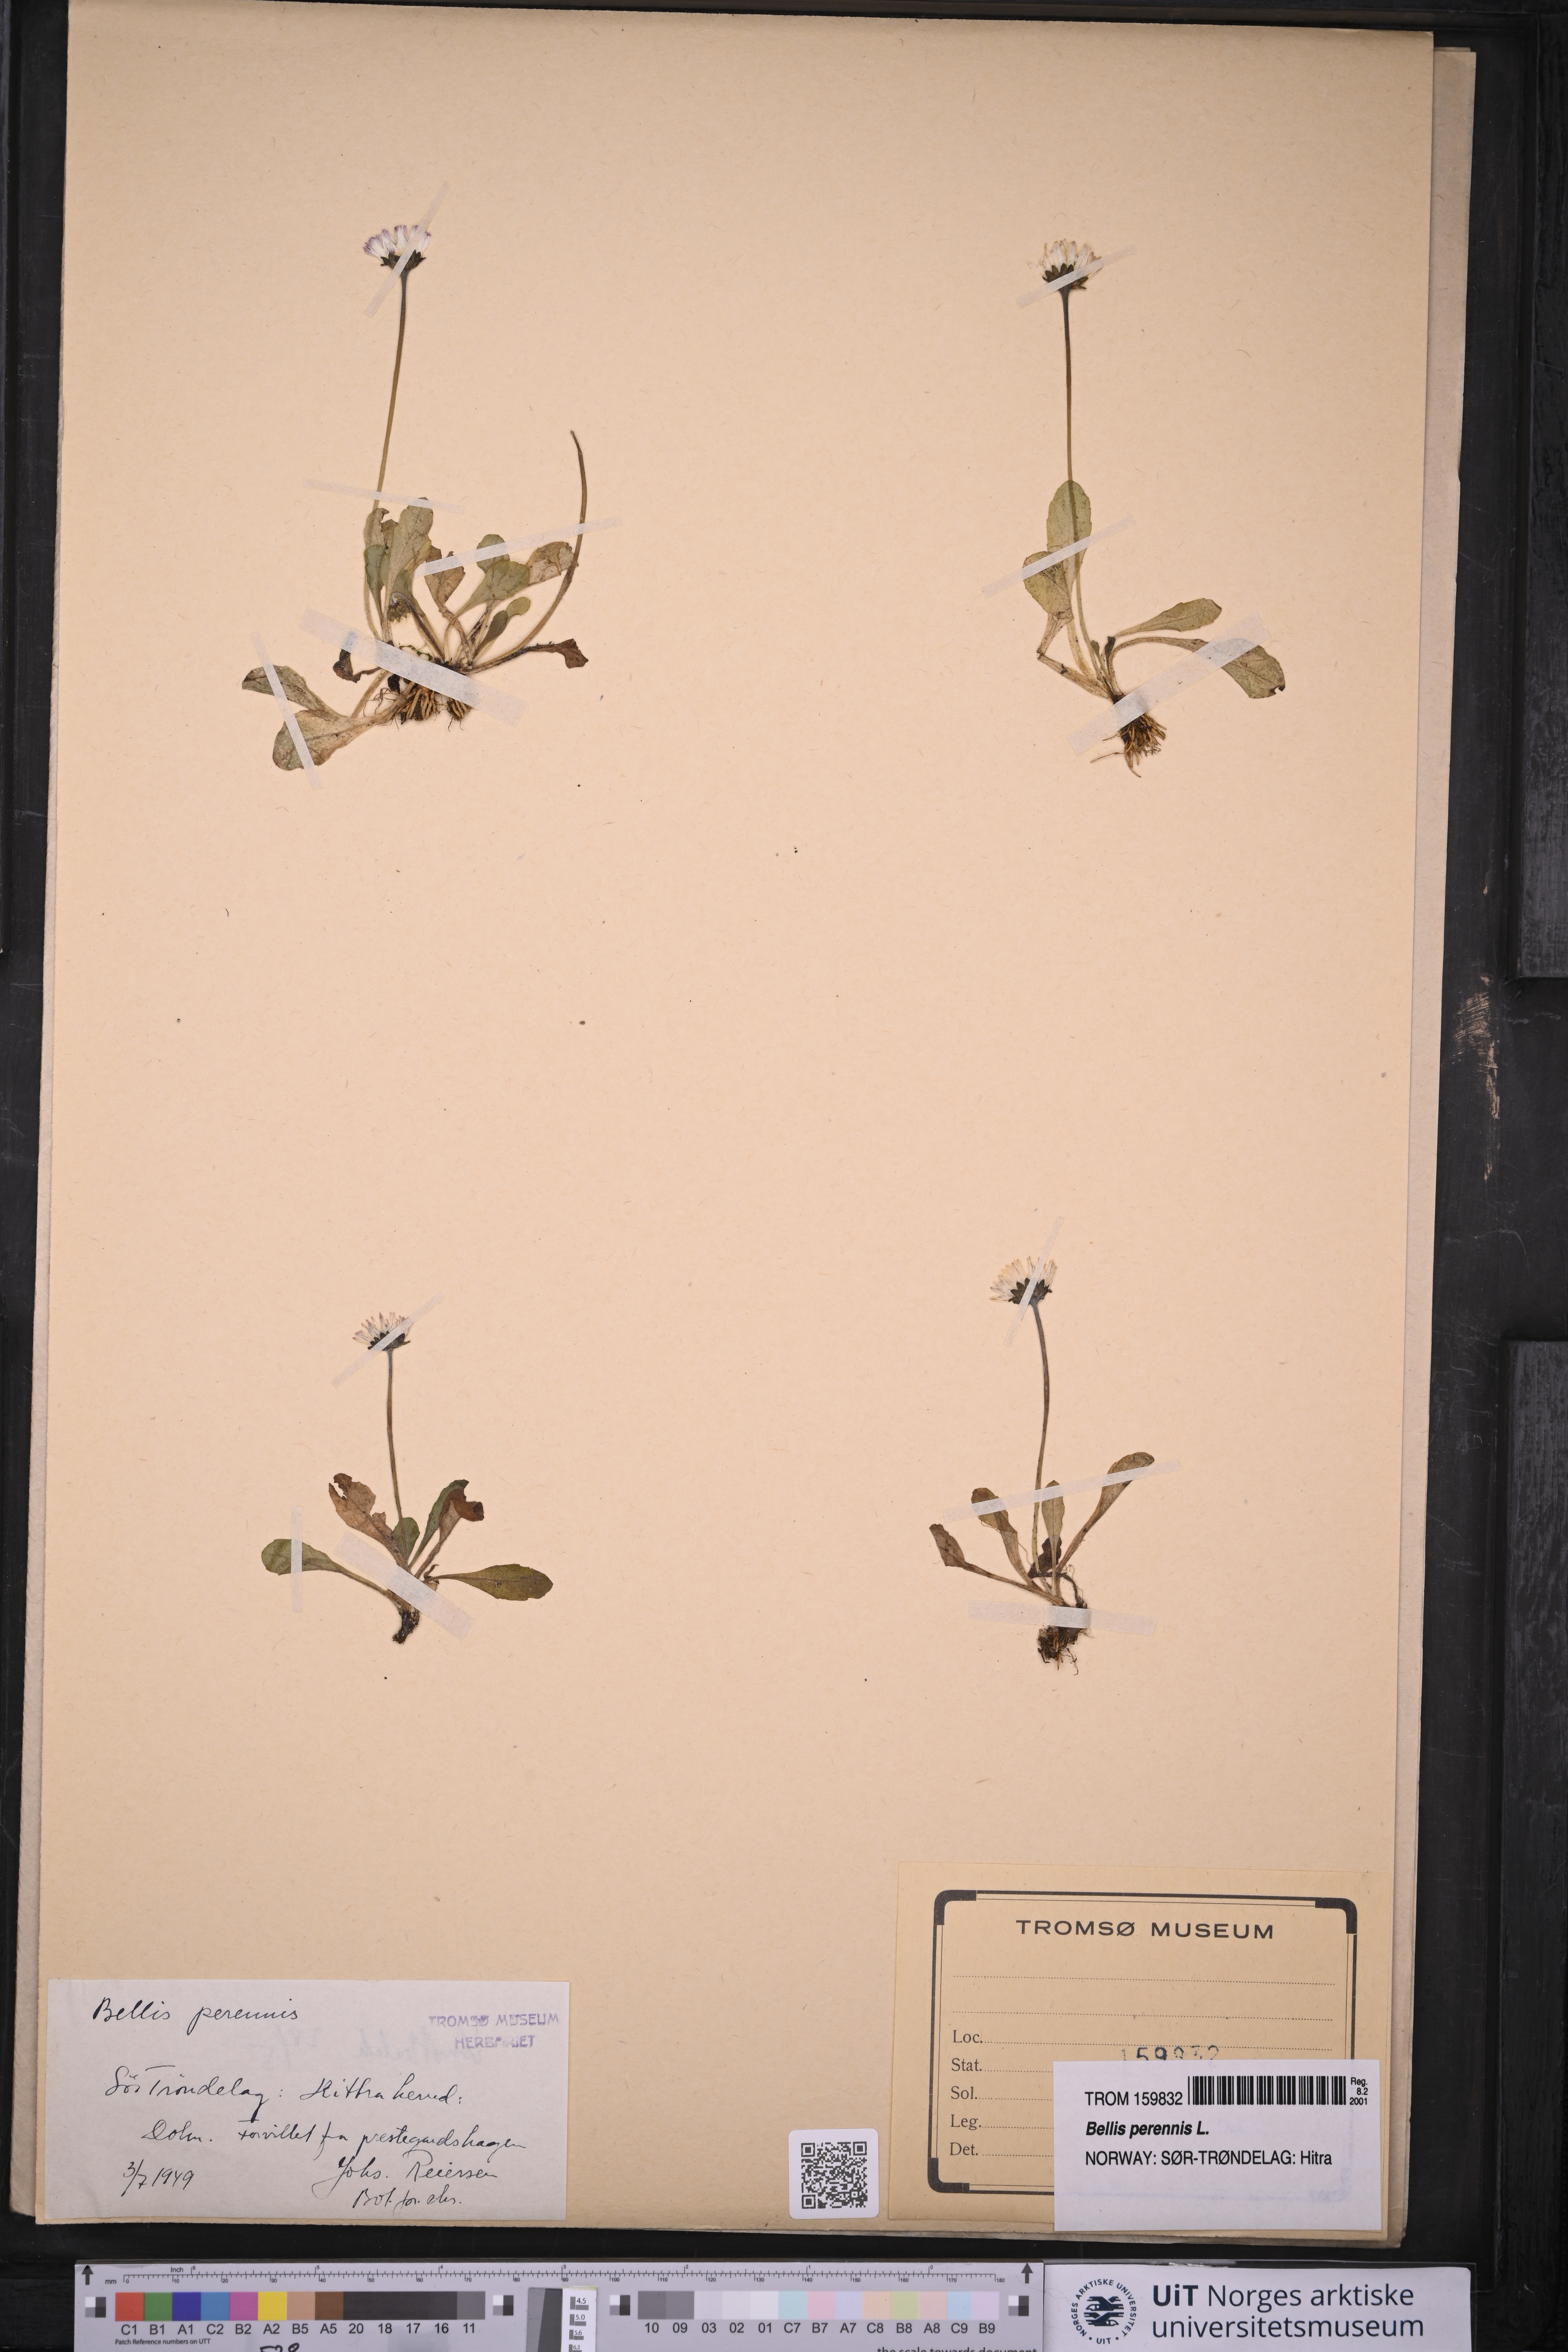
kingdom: Plantae
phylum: Tracheophyta
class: Magnoliopsida
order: Asterales
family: Asteraceae
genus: Bellis
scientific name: Bellis perennis
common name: Lawndaisy
